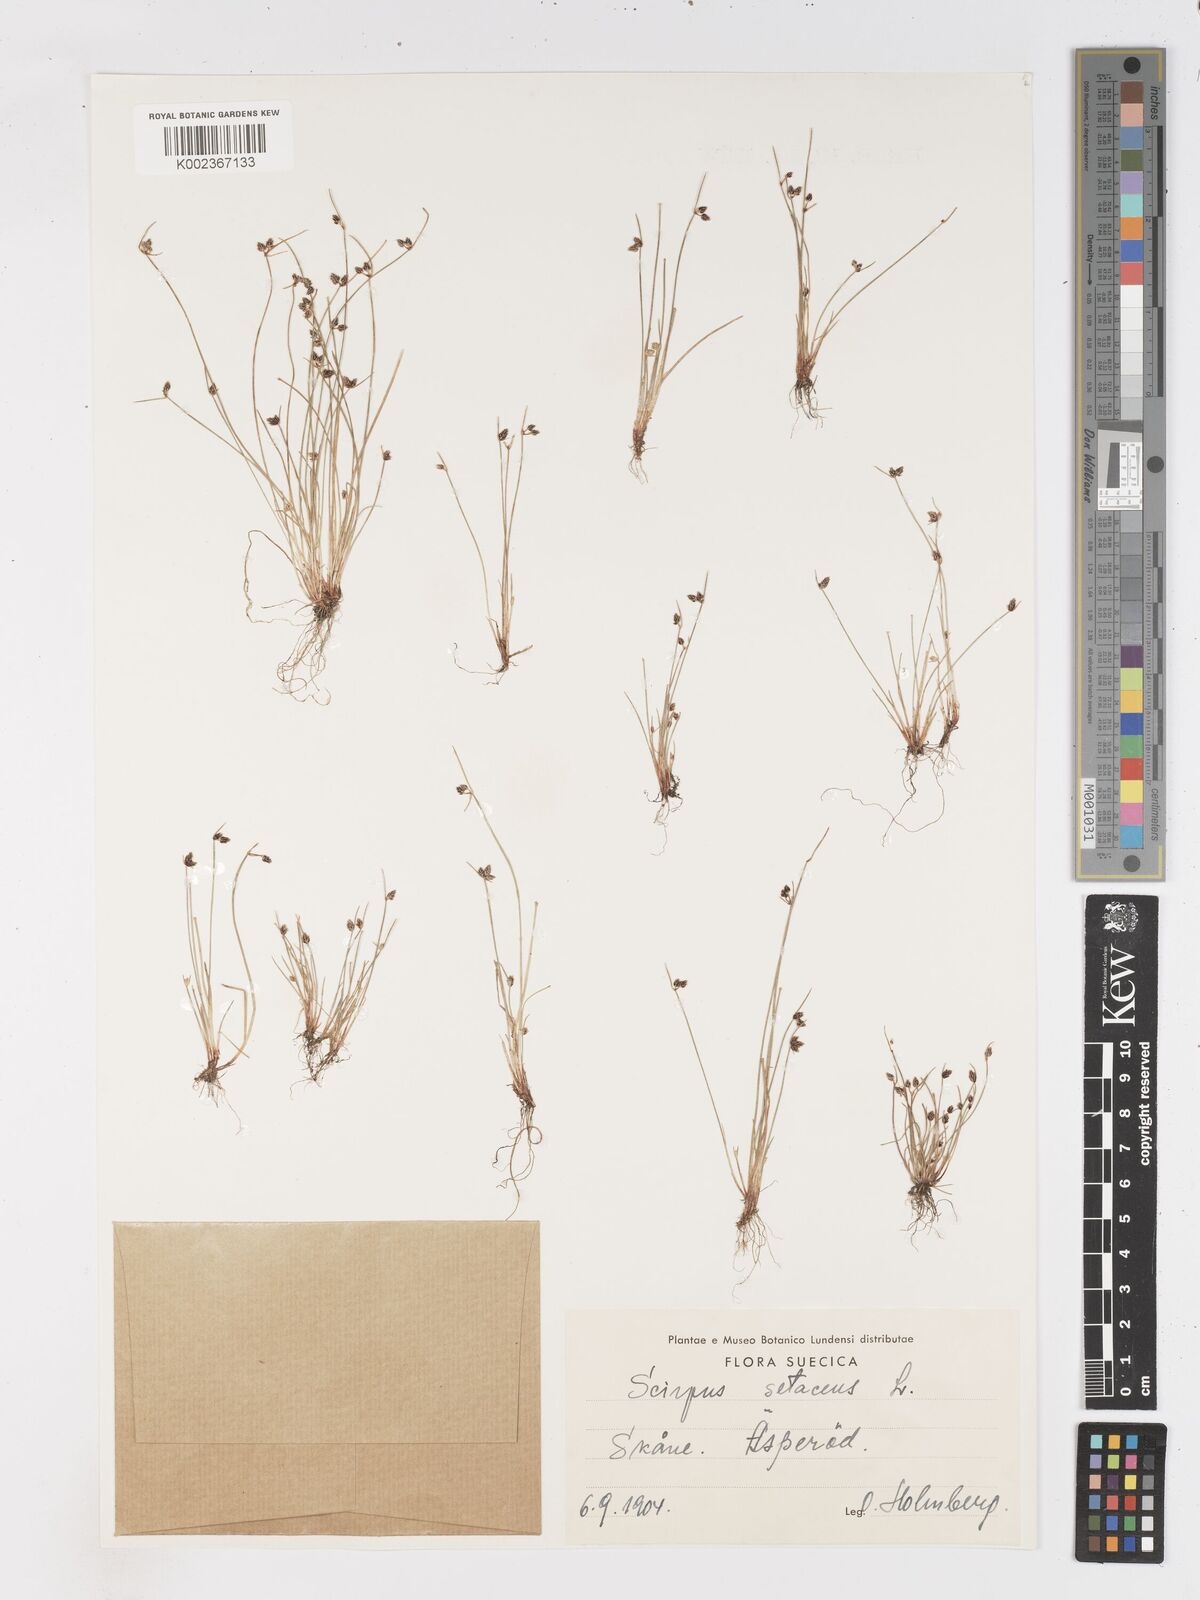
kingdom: Plantae
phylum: Tracheophyta
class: Liliopsida
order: Poales
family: Cyperaceae
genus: Isolepis
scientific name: Isolepis setacea
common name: Bristle club-rush
